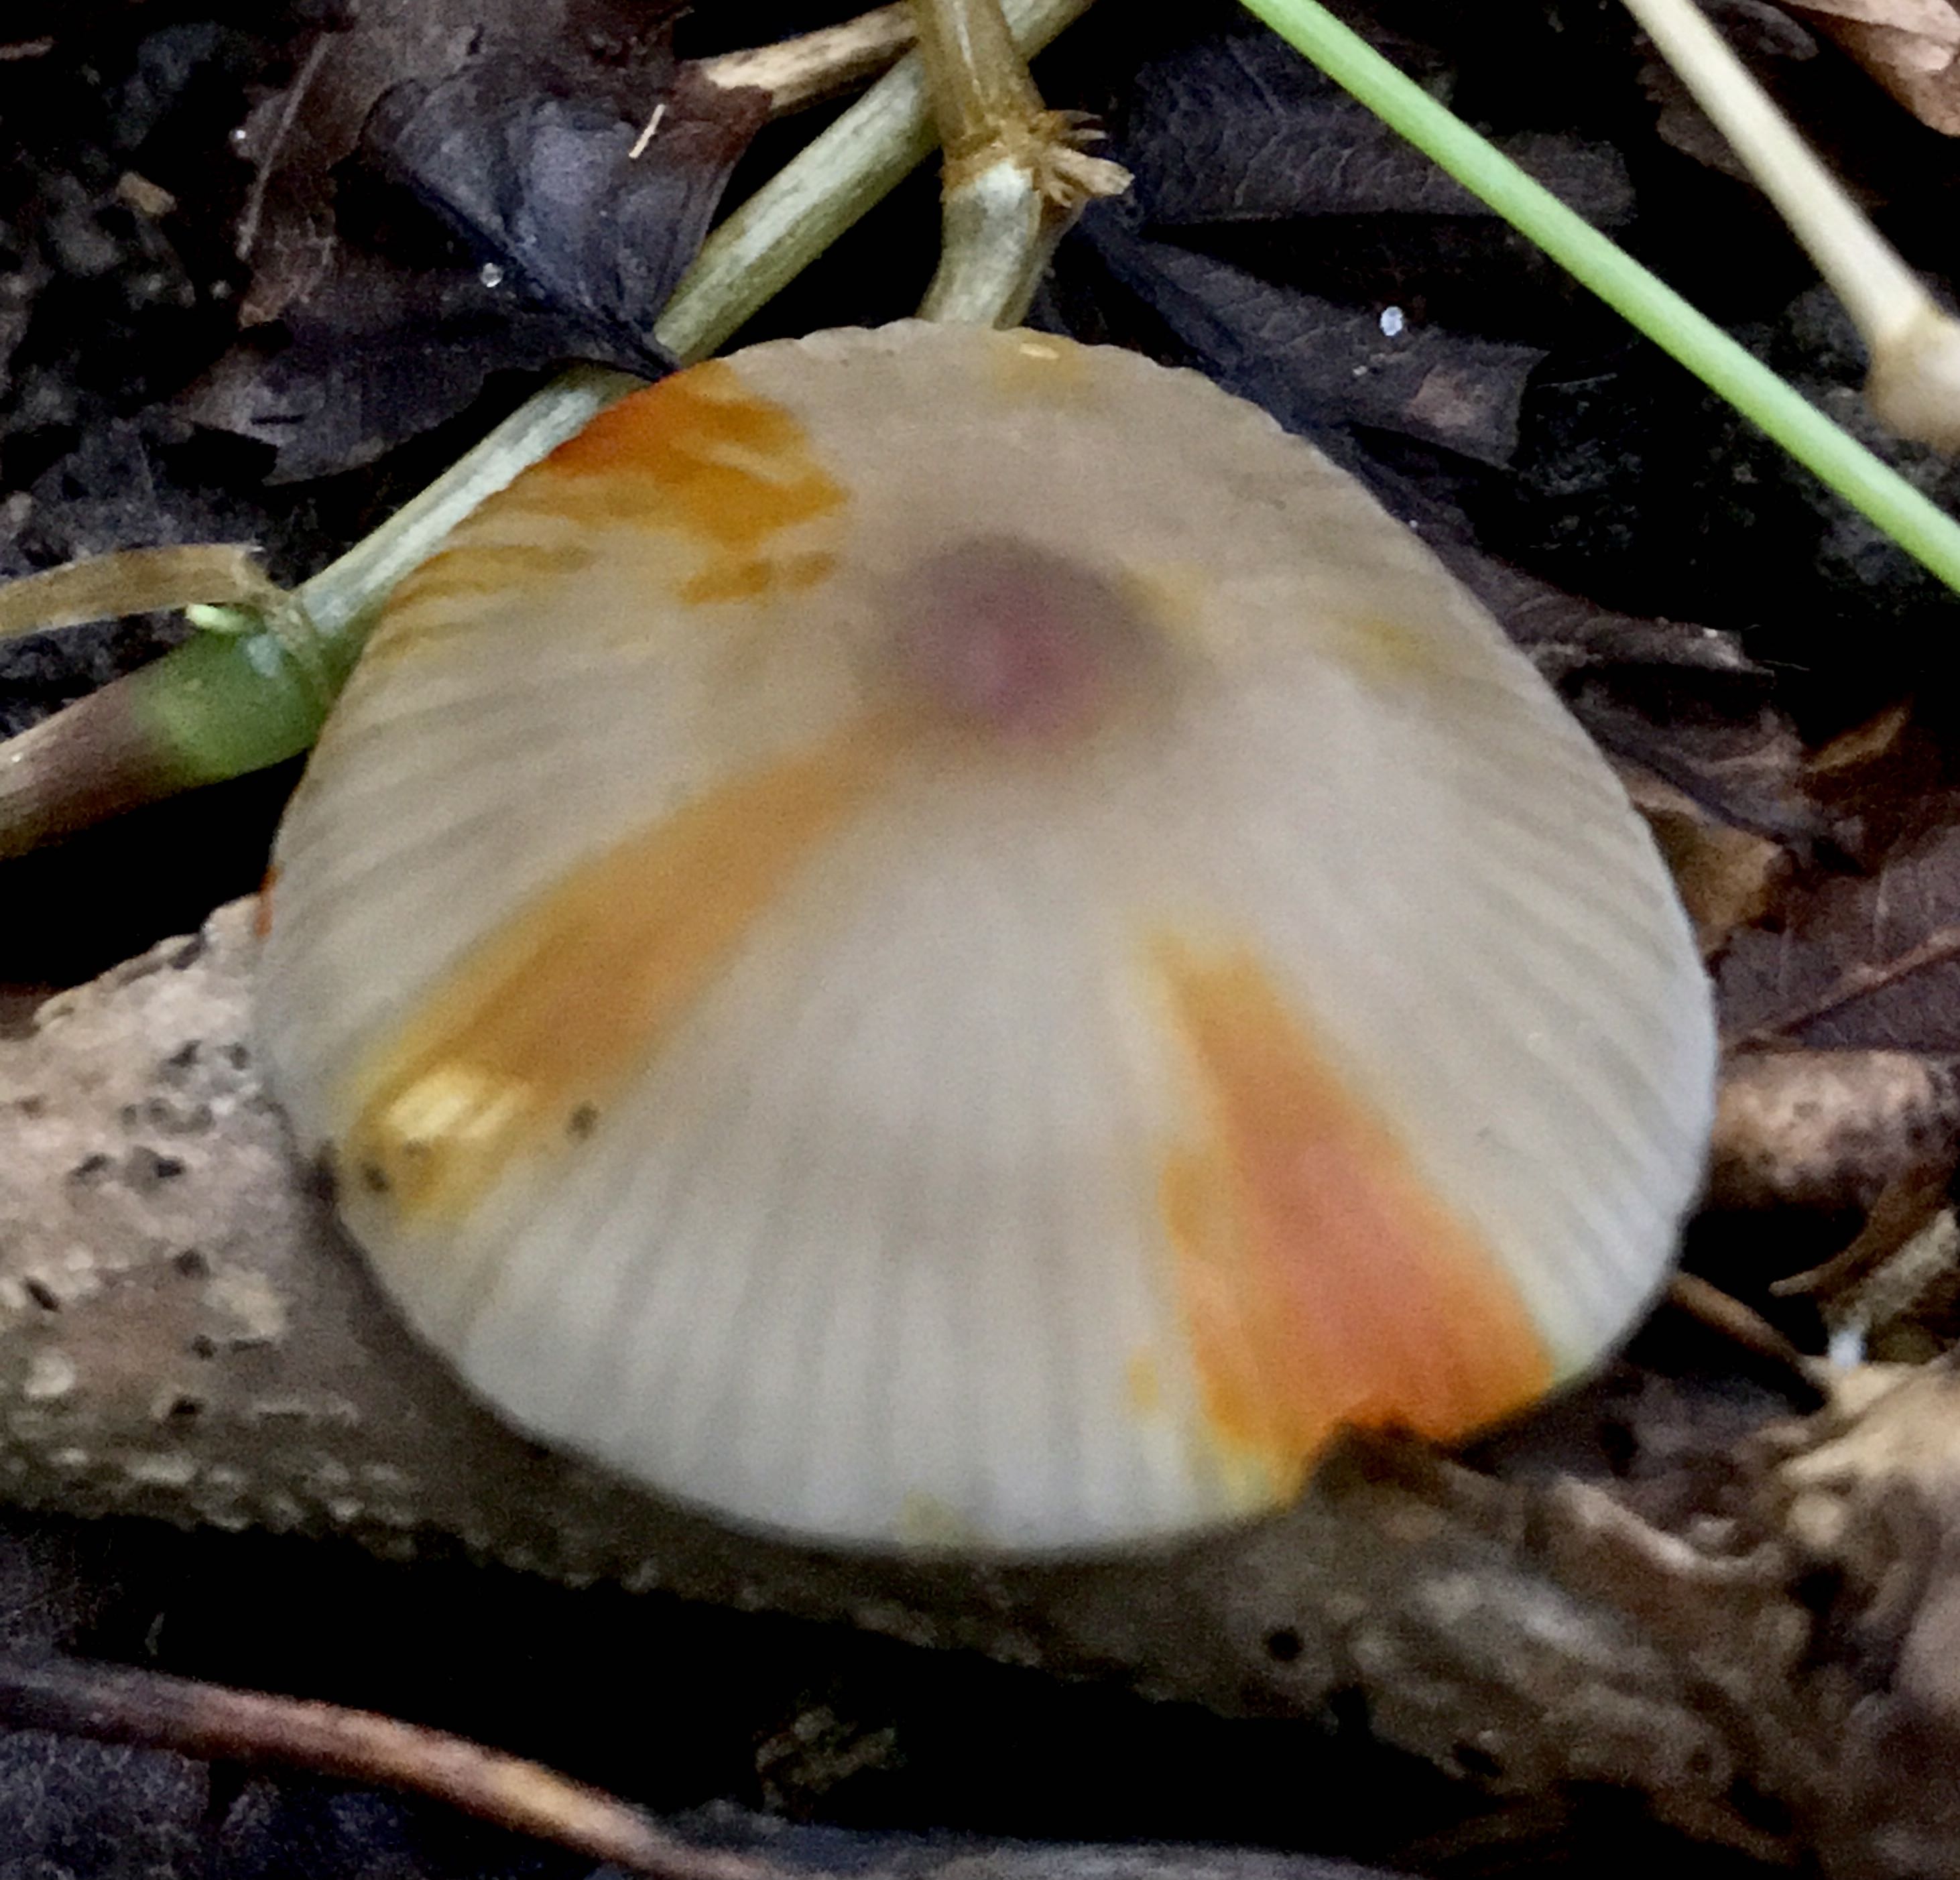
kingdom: Fungi
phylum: Basidiomycota
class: Agaricomycetes
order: Agaricales
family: Mycenaceae
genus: Mycena
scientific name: Mycena crocata
